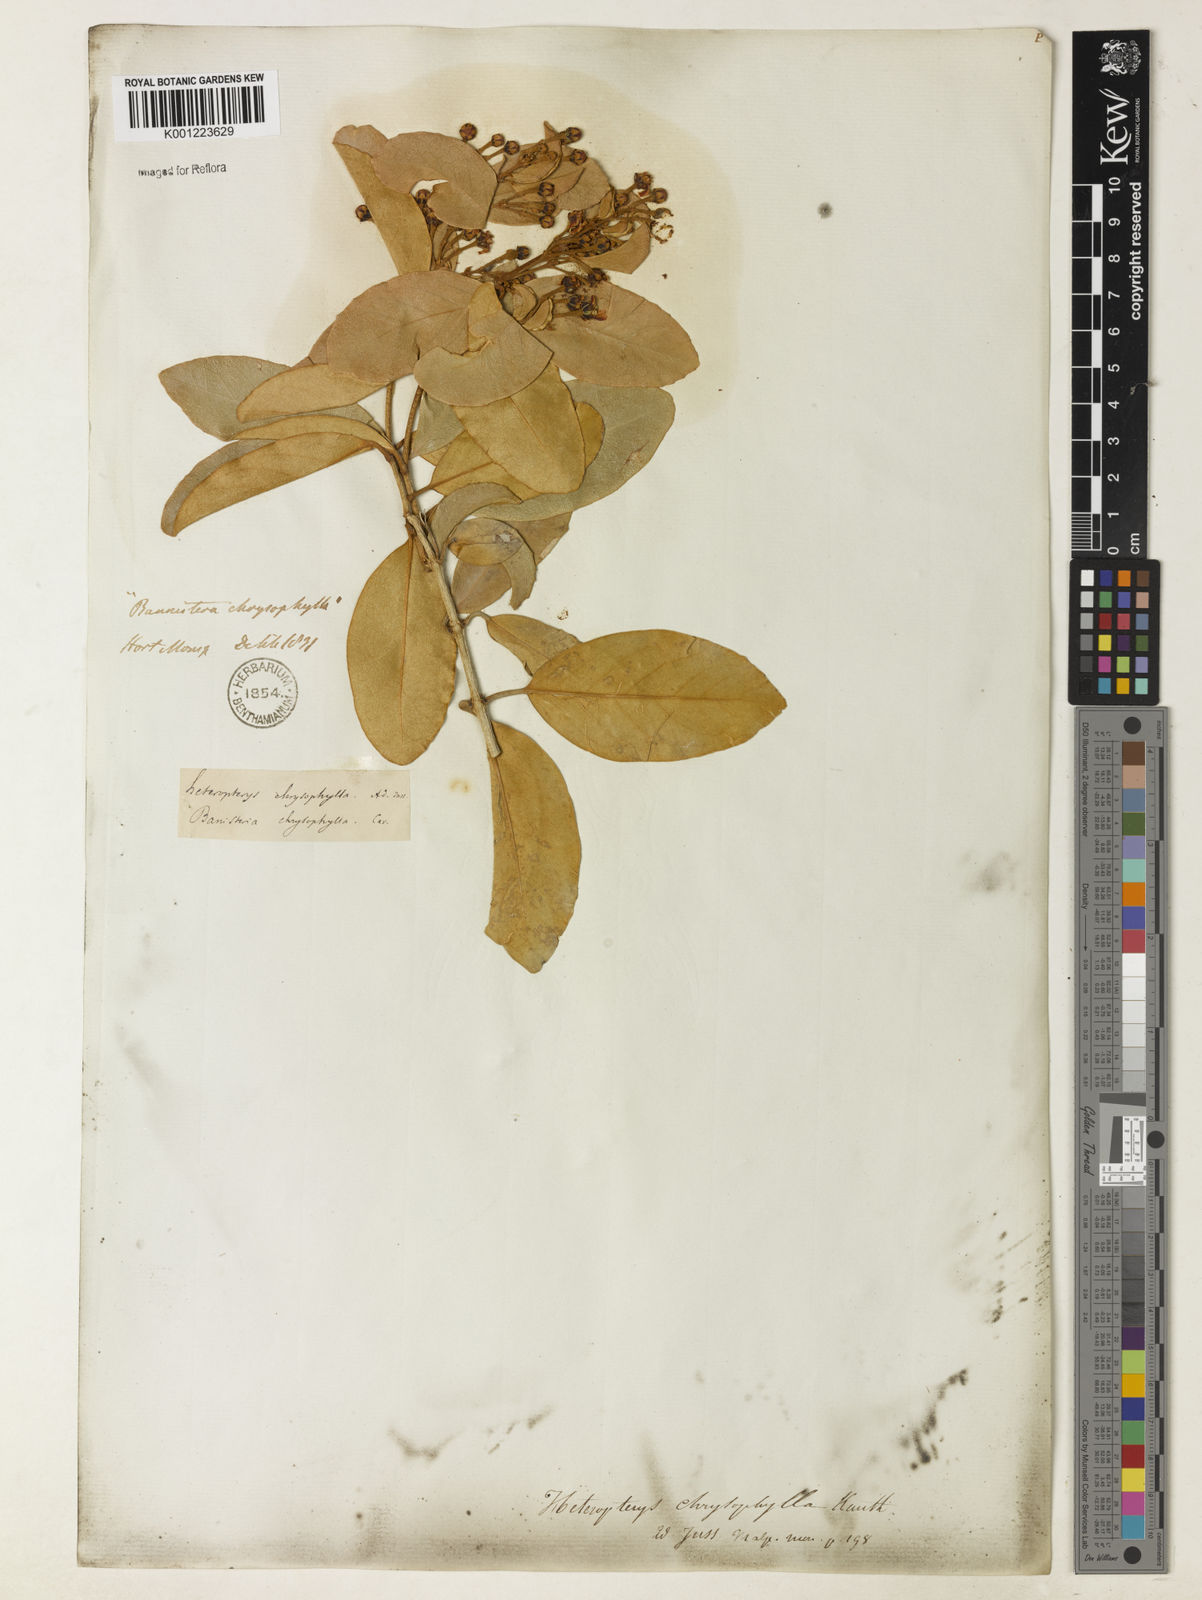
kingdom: Plantae
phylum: Tracheophyta
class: Magnoliopsida
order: Malpighiales
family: Malpighiaceae
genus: Heteropterys
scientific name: Heteropterys chrysophylla
